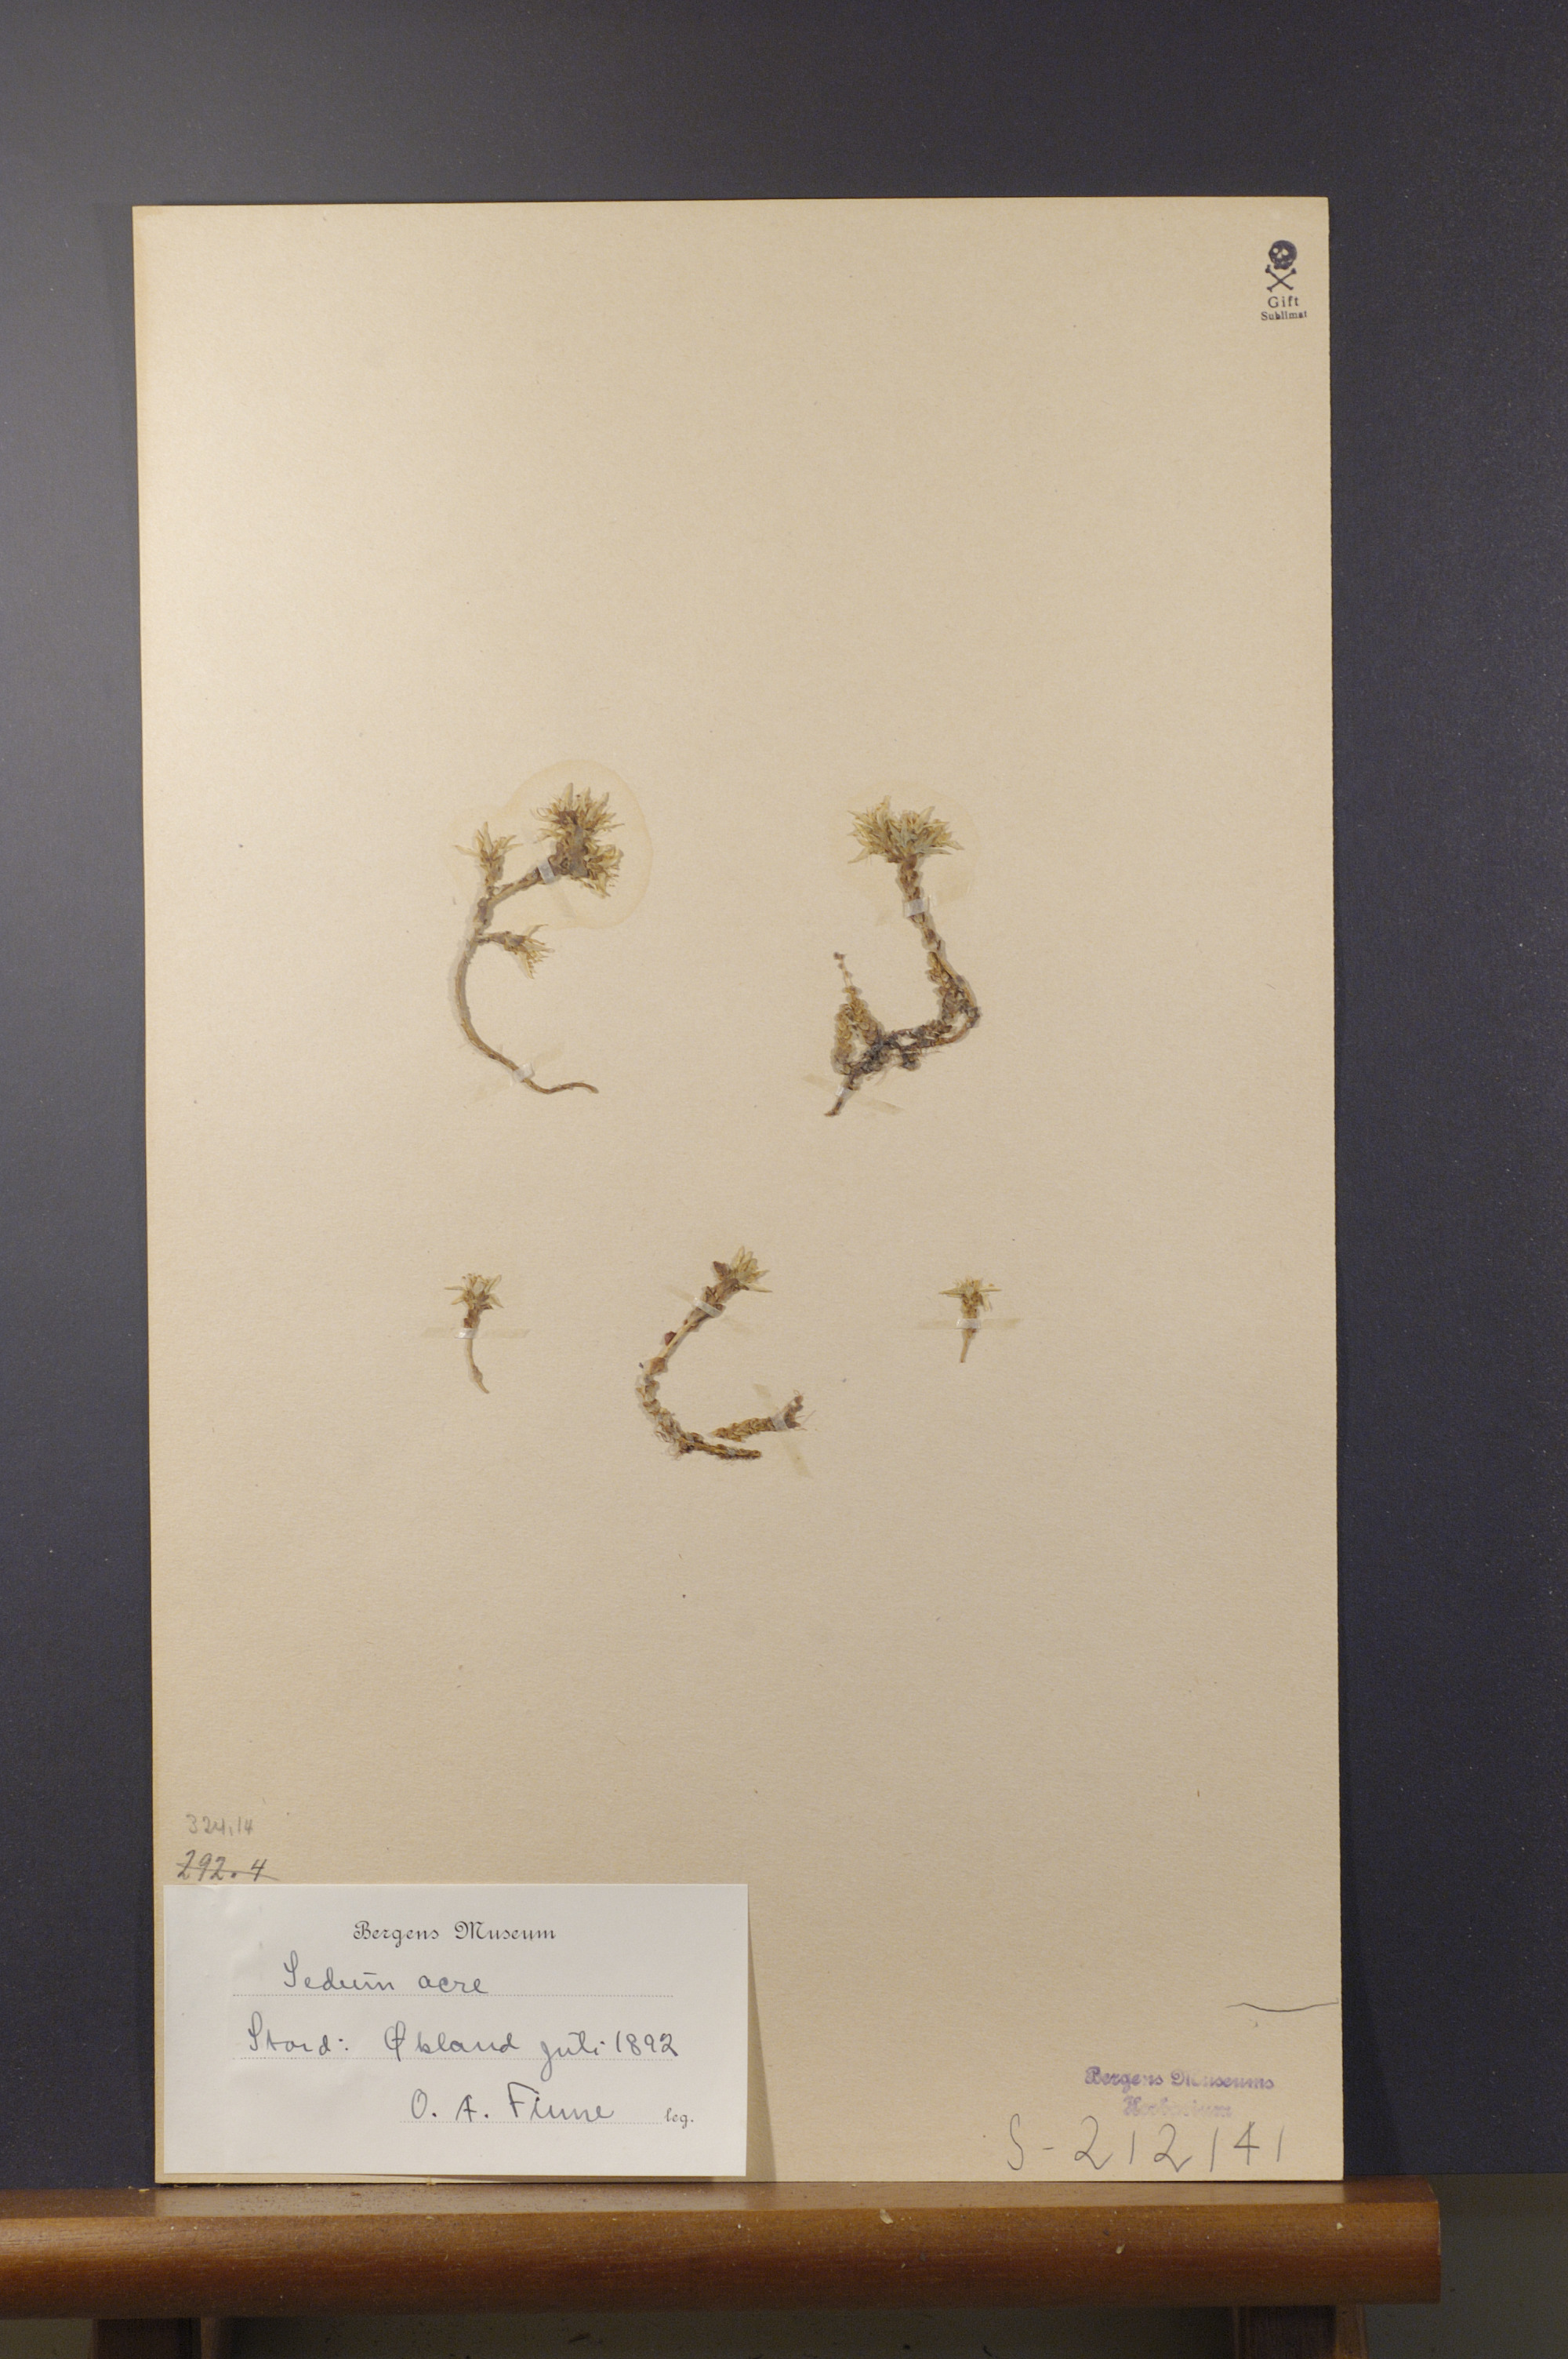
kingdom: Plantae
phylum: Tracheophyta
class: Magnoliopsida
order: Saxifragales
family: Crassulaceae
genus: Sedum
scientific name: Sedum acre
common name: Biting stonecrop
